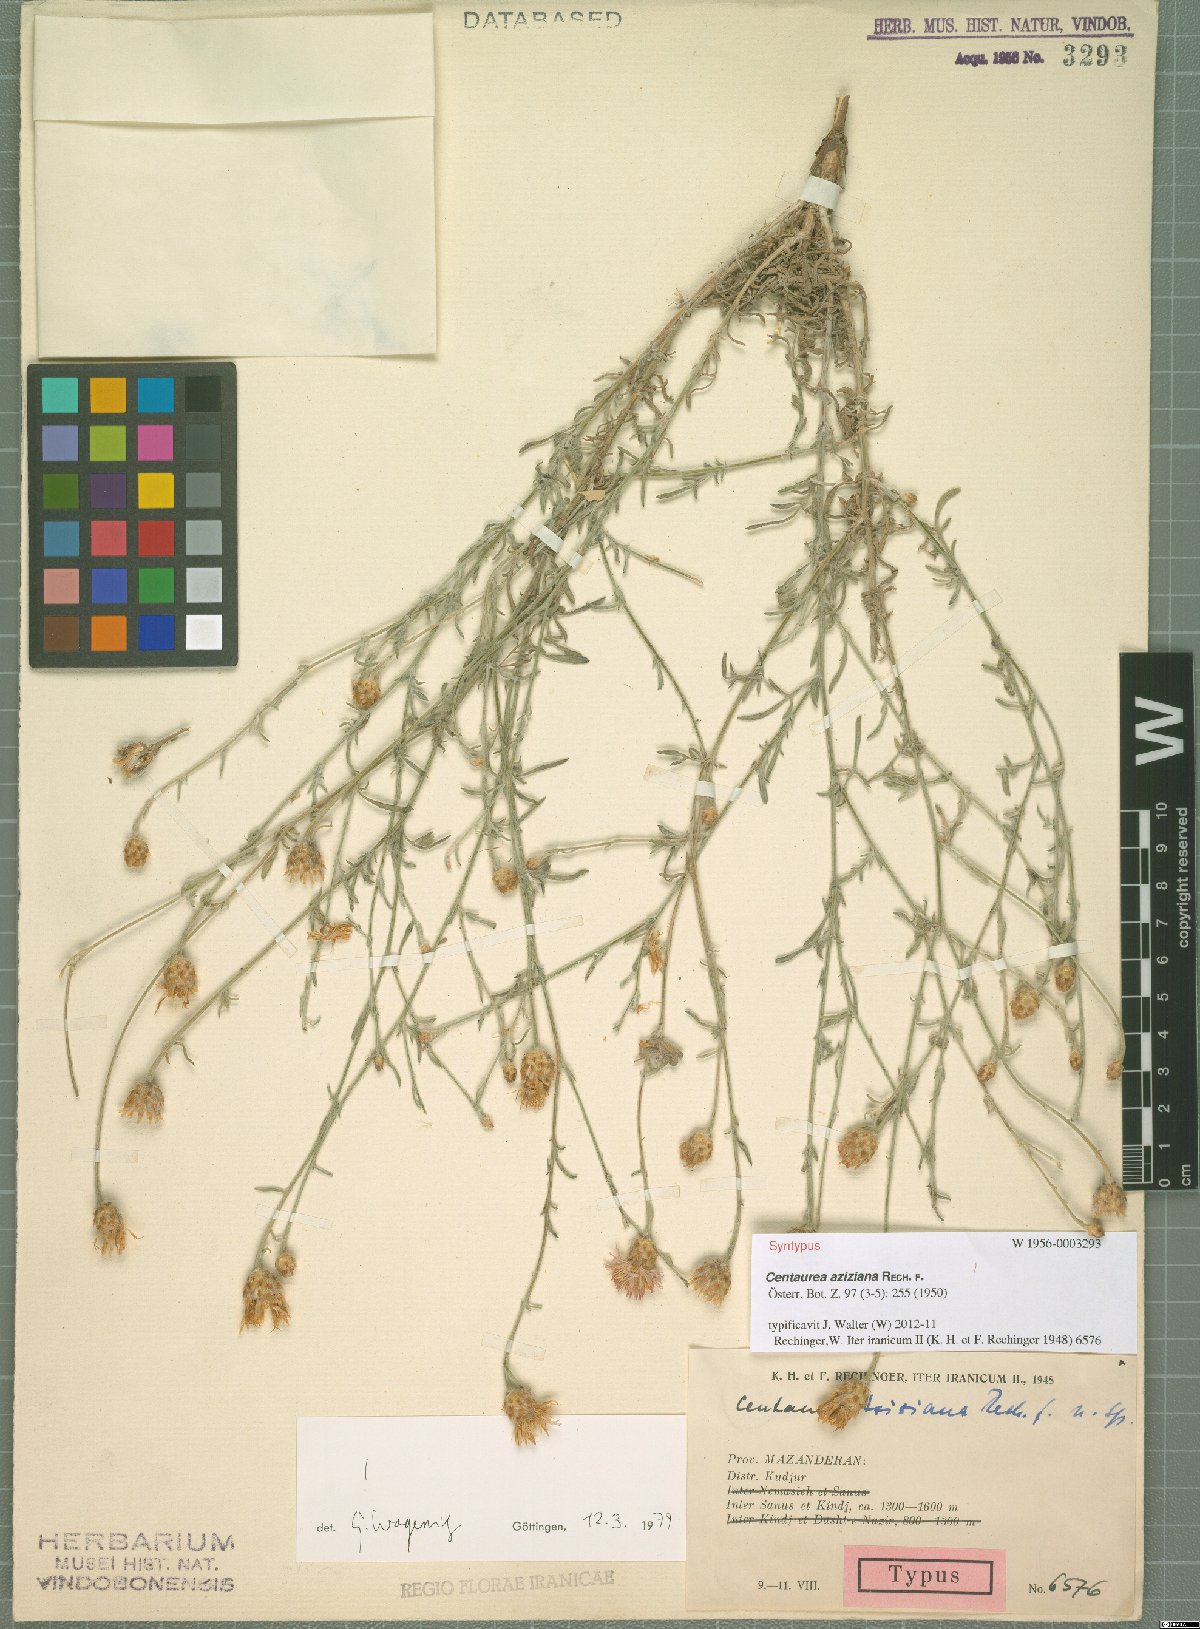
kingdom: Plantae
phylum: Tracheophyta
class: Magnoliopsida
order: Asterales
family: Asteraceae
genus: Centaurea
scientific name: Centaurea aziziana
